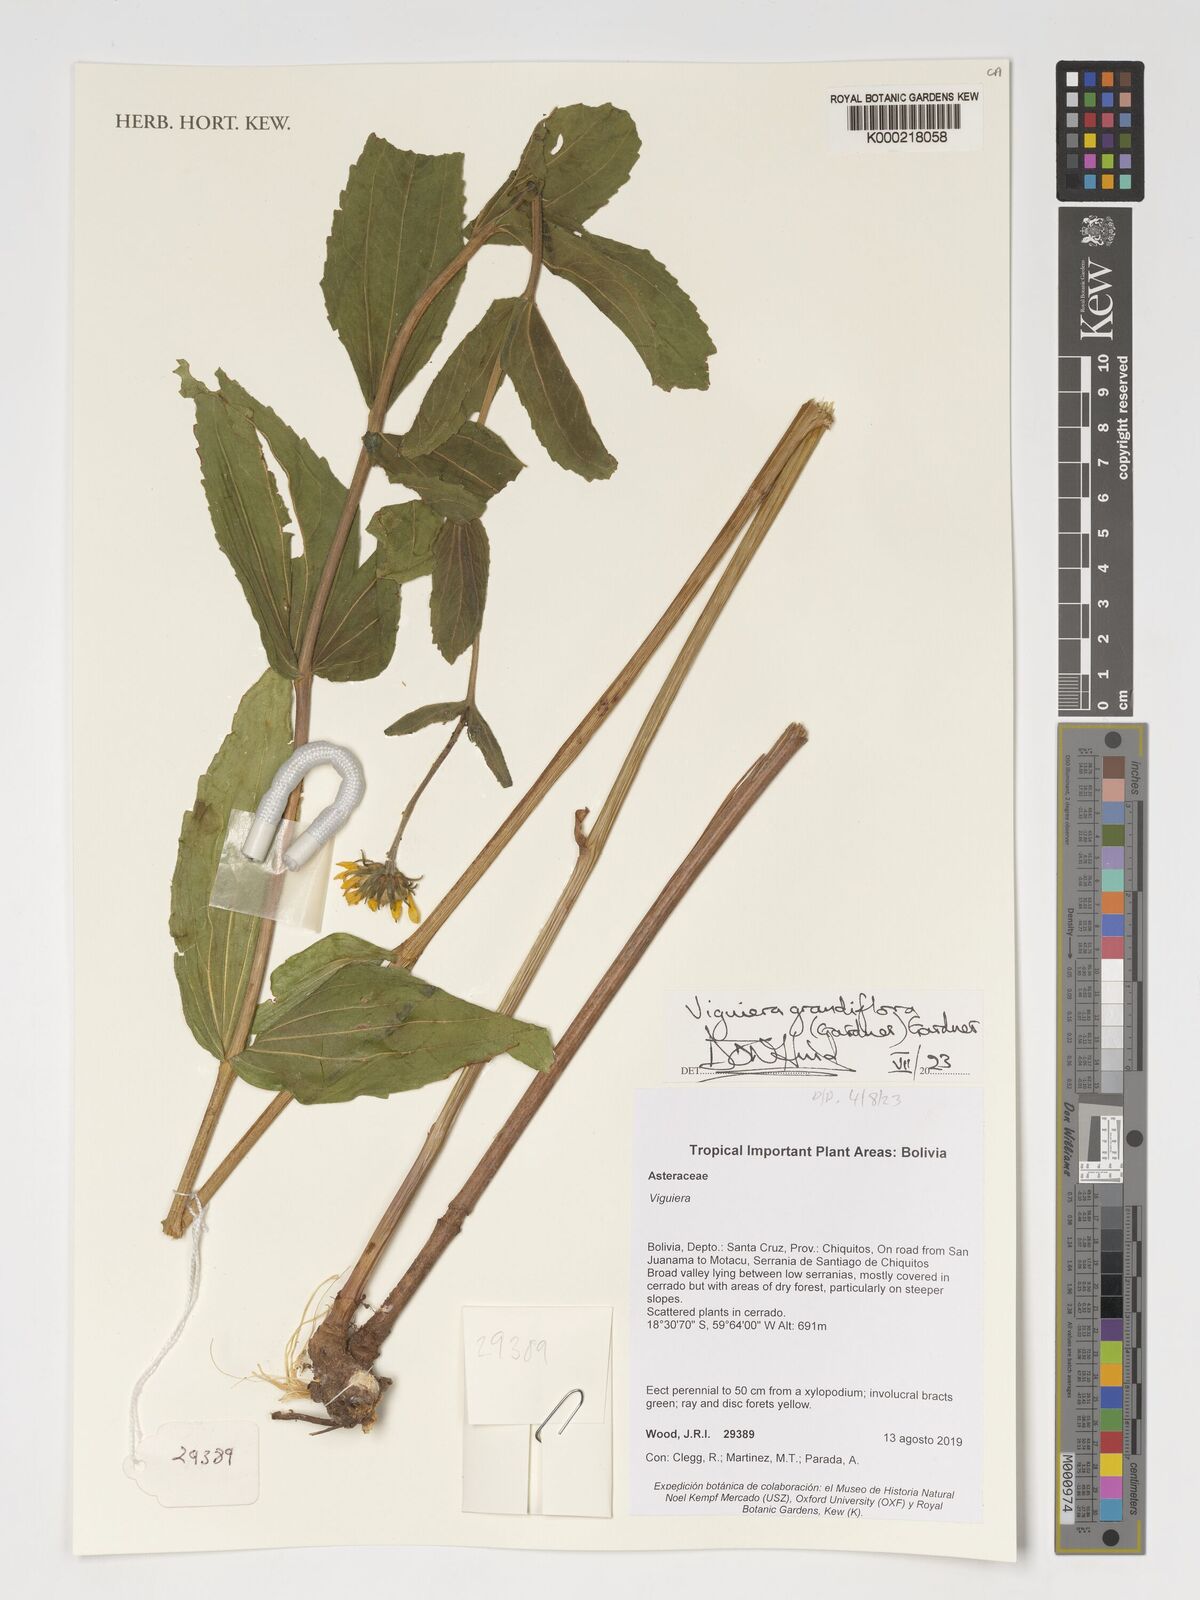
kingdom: Plantae
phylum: Tracheophyta
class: Magnoliopsida
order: Asterales
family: Asteraceae
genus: Aldama
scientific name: Aldama grandiflora
